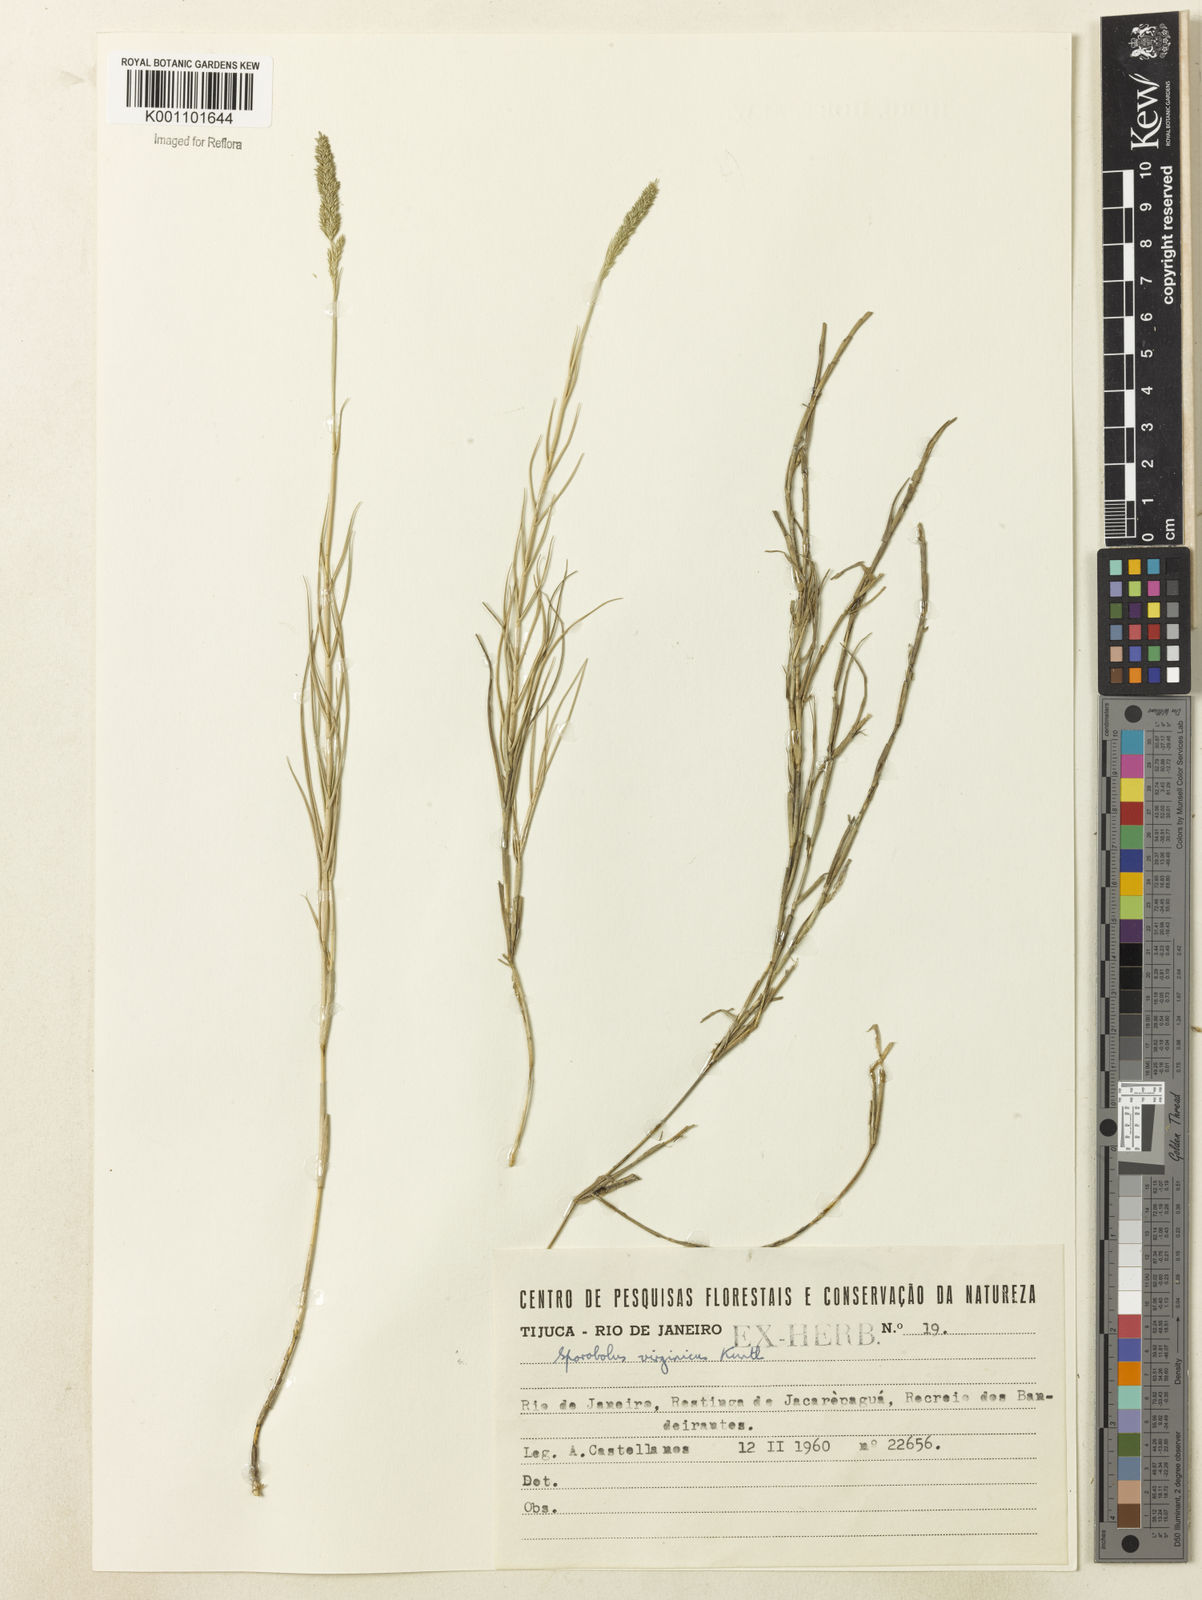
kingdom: Plantae
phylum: Tracheophyta
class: Liliopsida
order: Poales
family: Poaceae
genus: Sporobolus
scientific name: Sporobolus virginicus
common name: Beach dropseed
